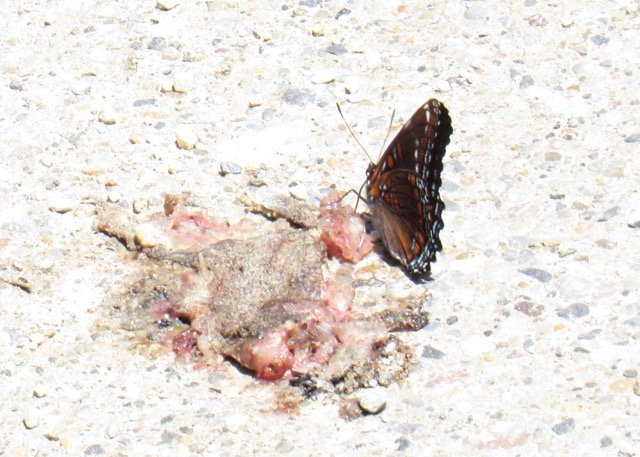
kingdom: Animalia
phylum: Arthropoda
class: Insecta
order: Lepidoptera
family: Nymphalidae
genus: Limenitis
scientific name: Limenitis
